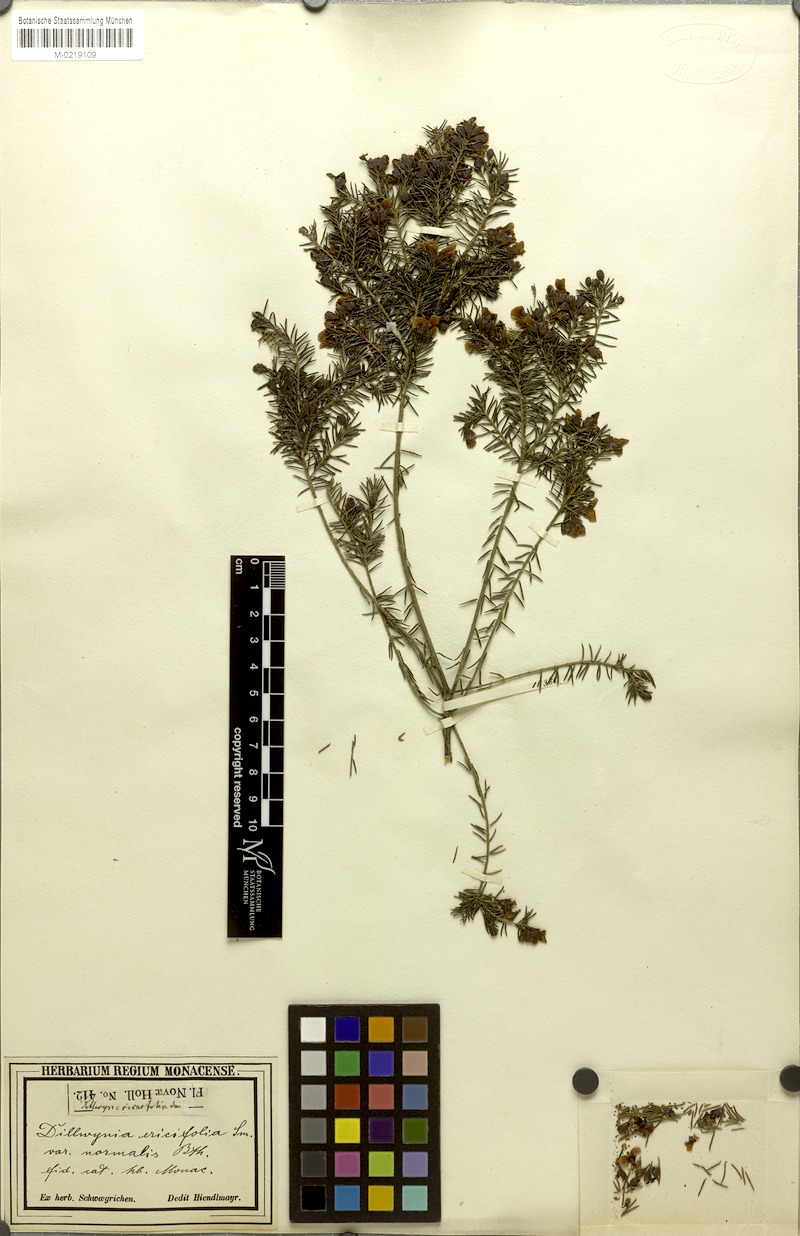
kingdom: Plantae
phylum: Tracheophyta
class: Magnoliopsida
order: Fabales
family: Fabaceae
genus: Dillwynia
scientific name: Dillwynia retorta
